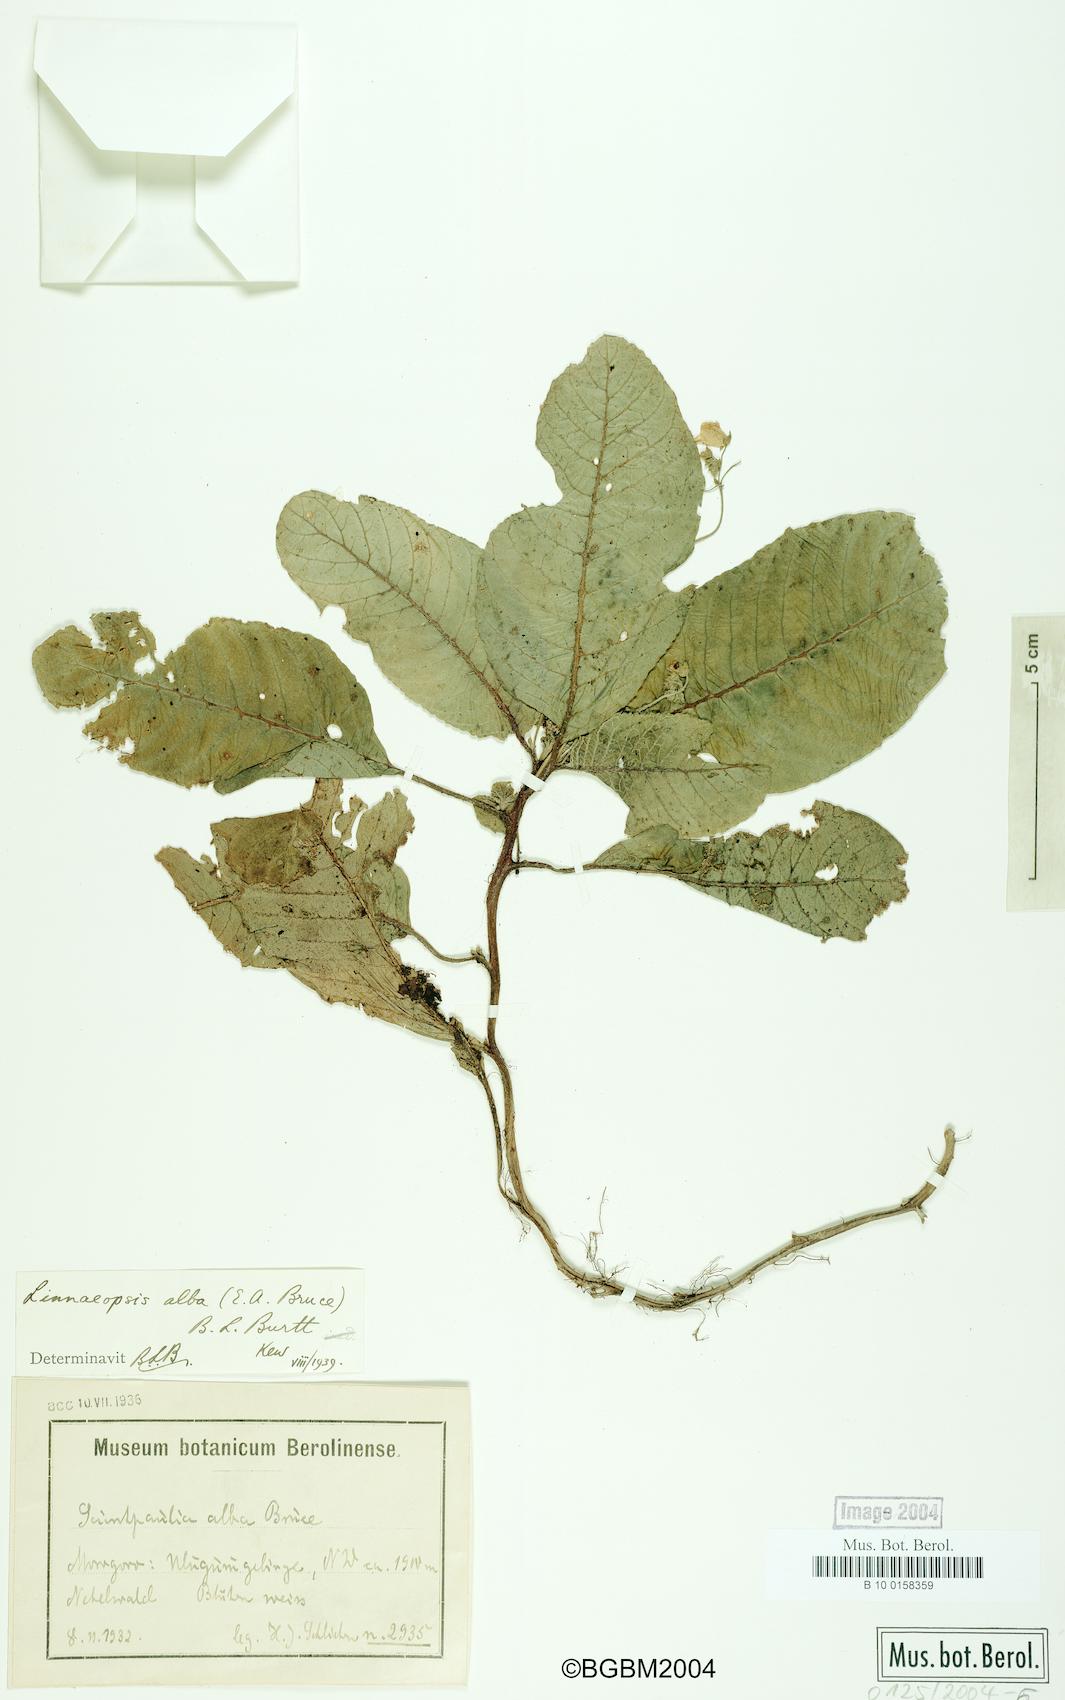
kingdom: Plantae
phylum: Tracheophyta
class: Magnoliopsida
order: Lamiales
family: Gesneriaceae
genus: Streptocarpus
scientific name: Streptocarpus albus
